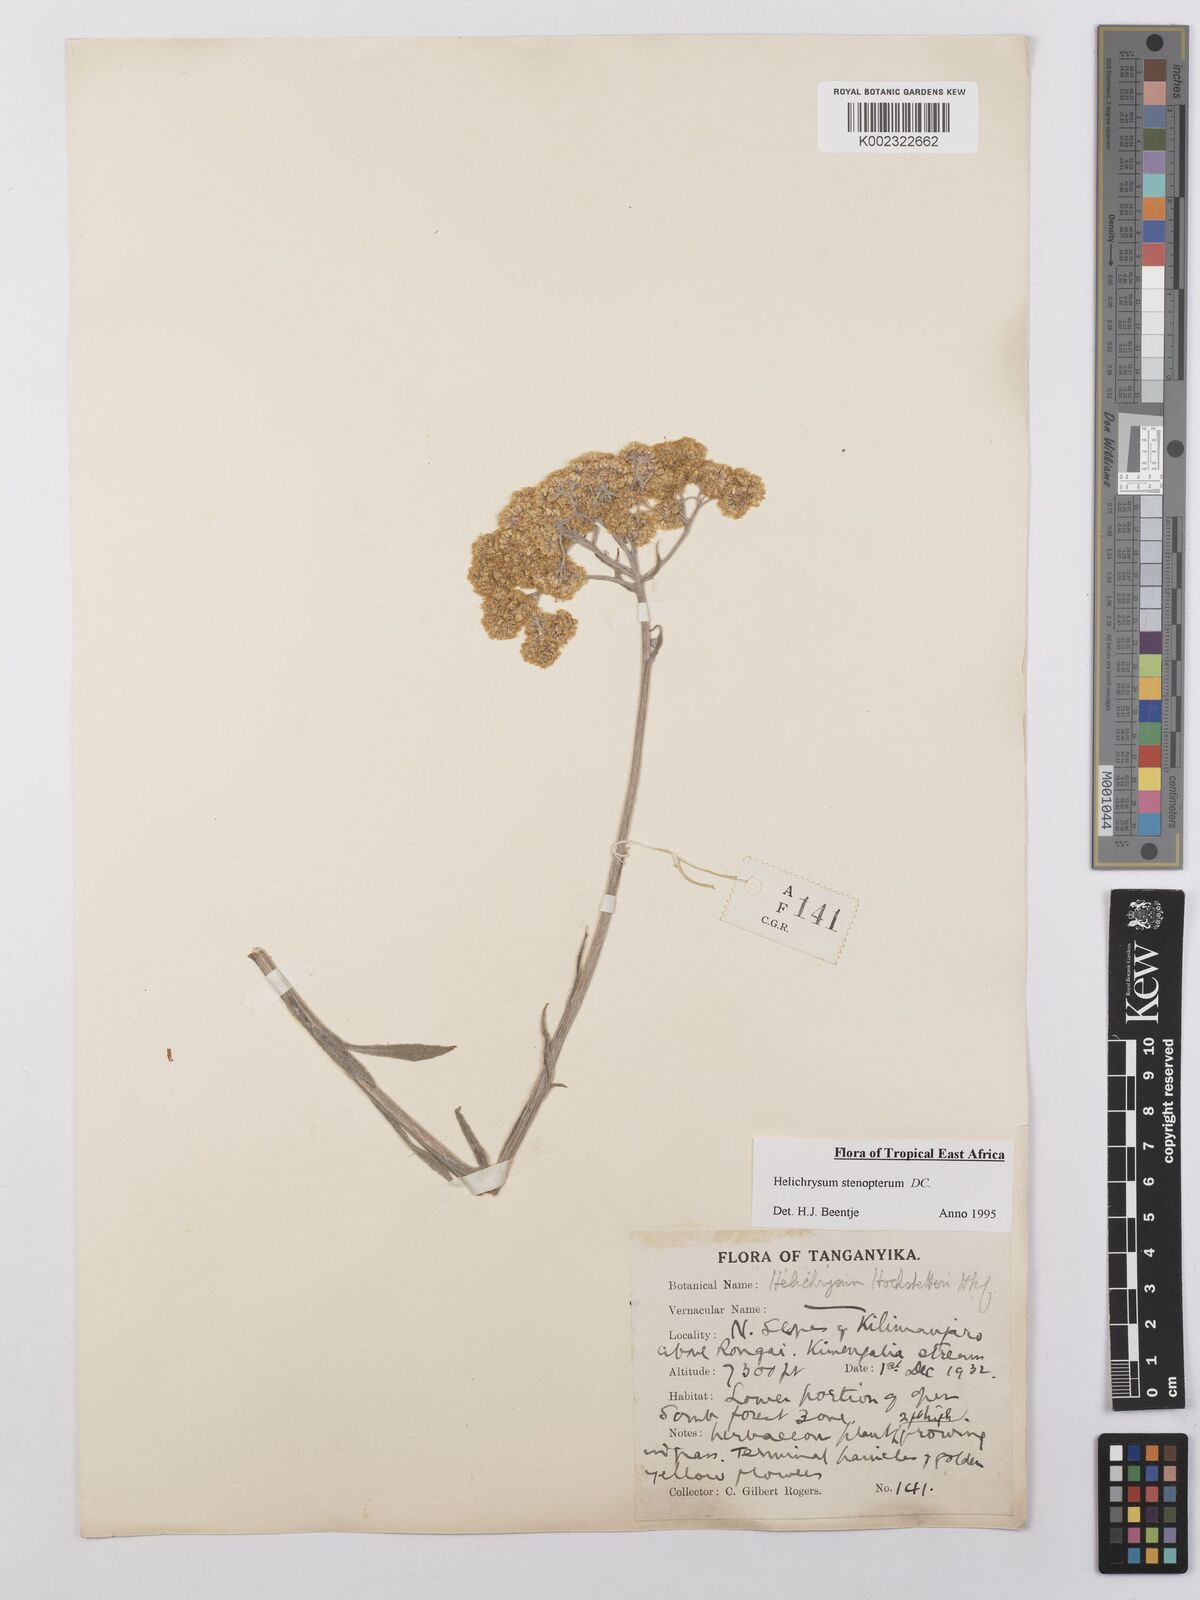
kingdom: Plantae
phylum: Tracheophyta
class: Magnoliopsida
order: Asterales
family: Asteraceae
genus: Helichrysum
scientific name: Helichrysum stenopterum
